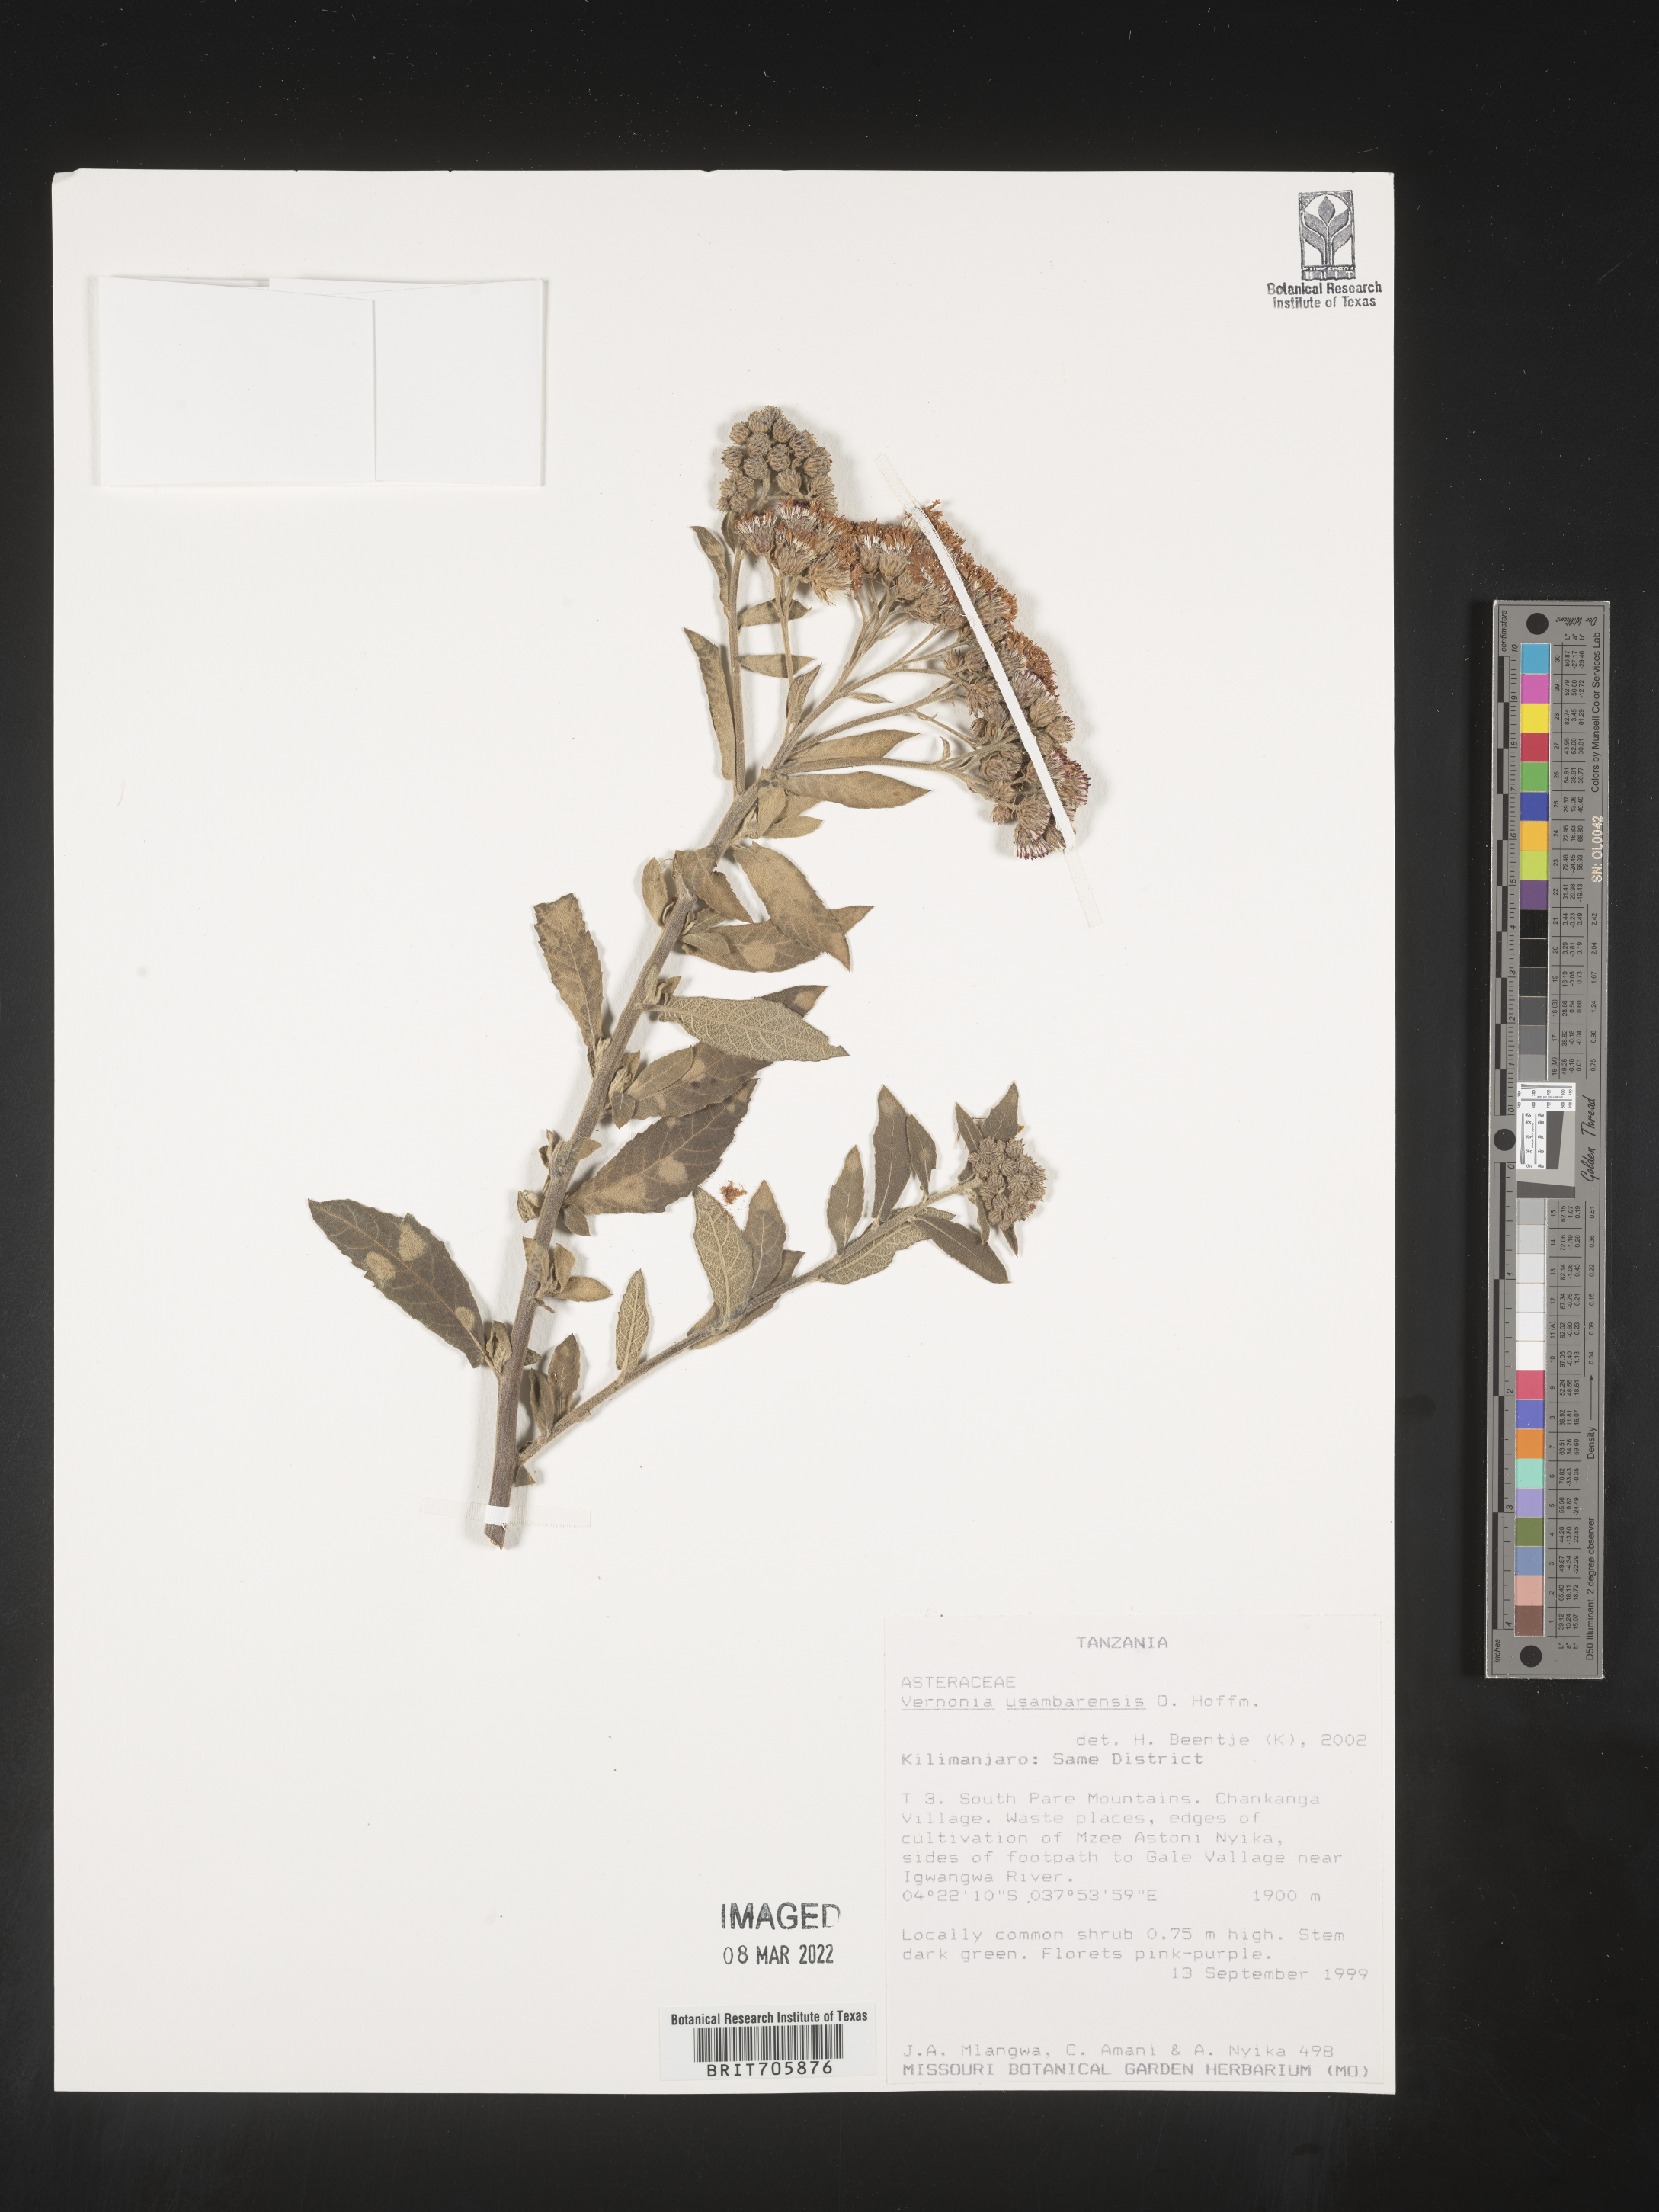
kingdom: Plantae
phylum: Tracheophyta
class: Magnoliopsida
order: Asterales
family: Asteraceae
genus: Vernonia
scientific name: Vernonia
